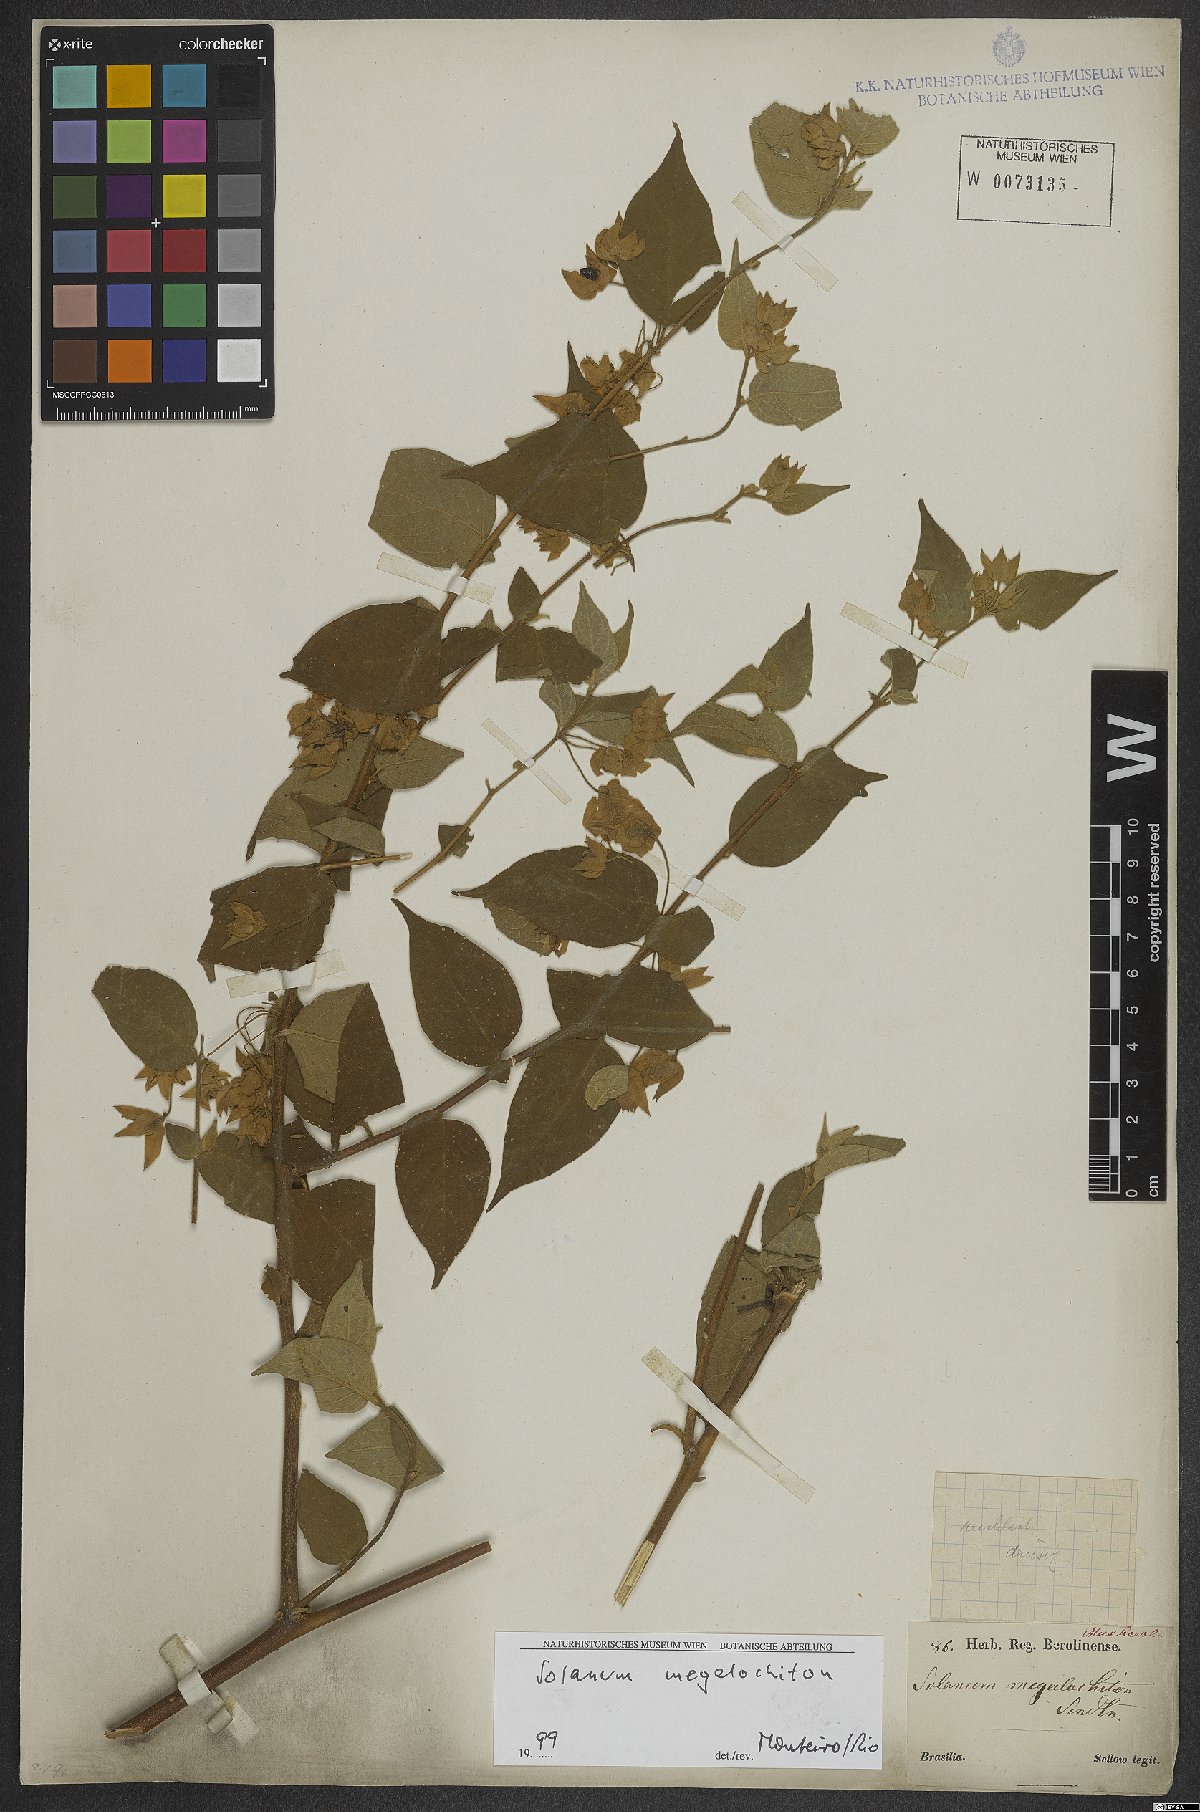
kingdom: Plantae
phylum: Tracheophyta
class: Magnoliopsida
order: Solanales
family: Solanaceae
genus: Solanum
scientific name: Solanum megalochiton
